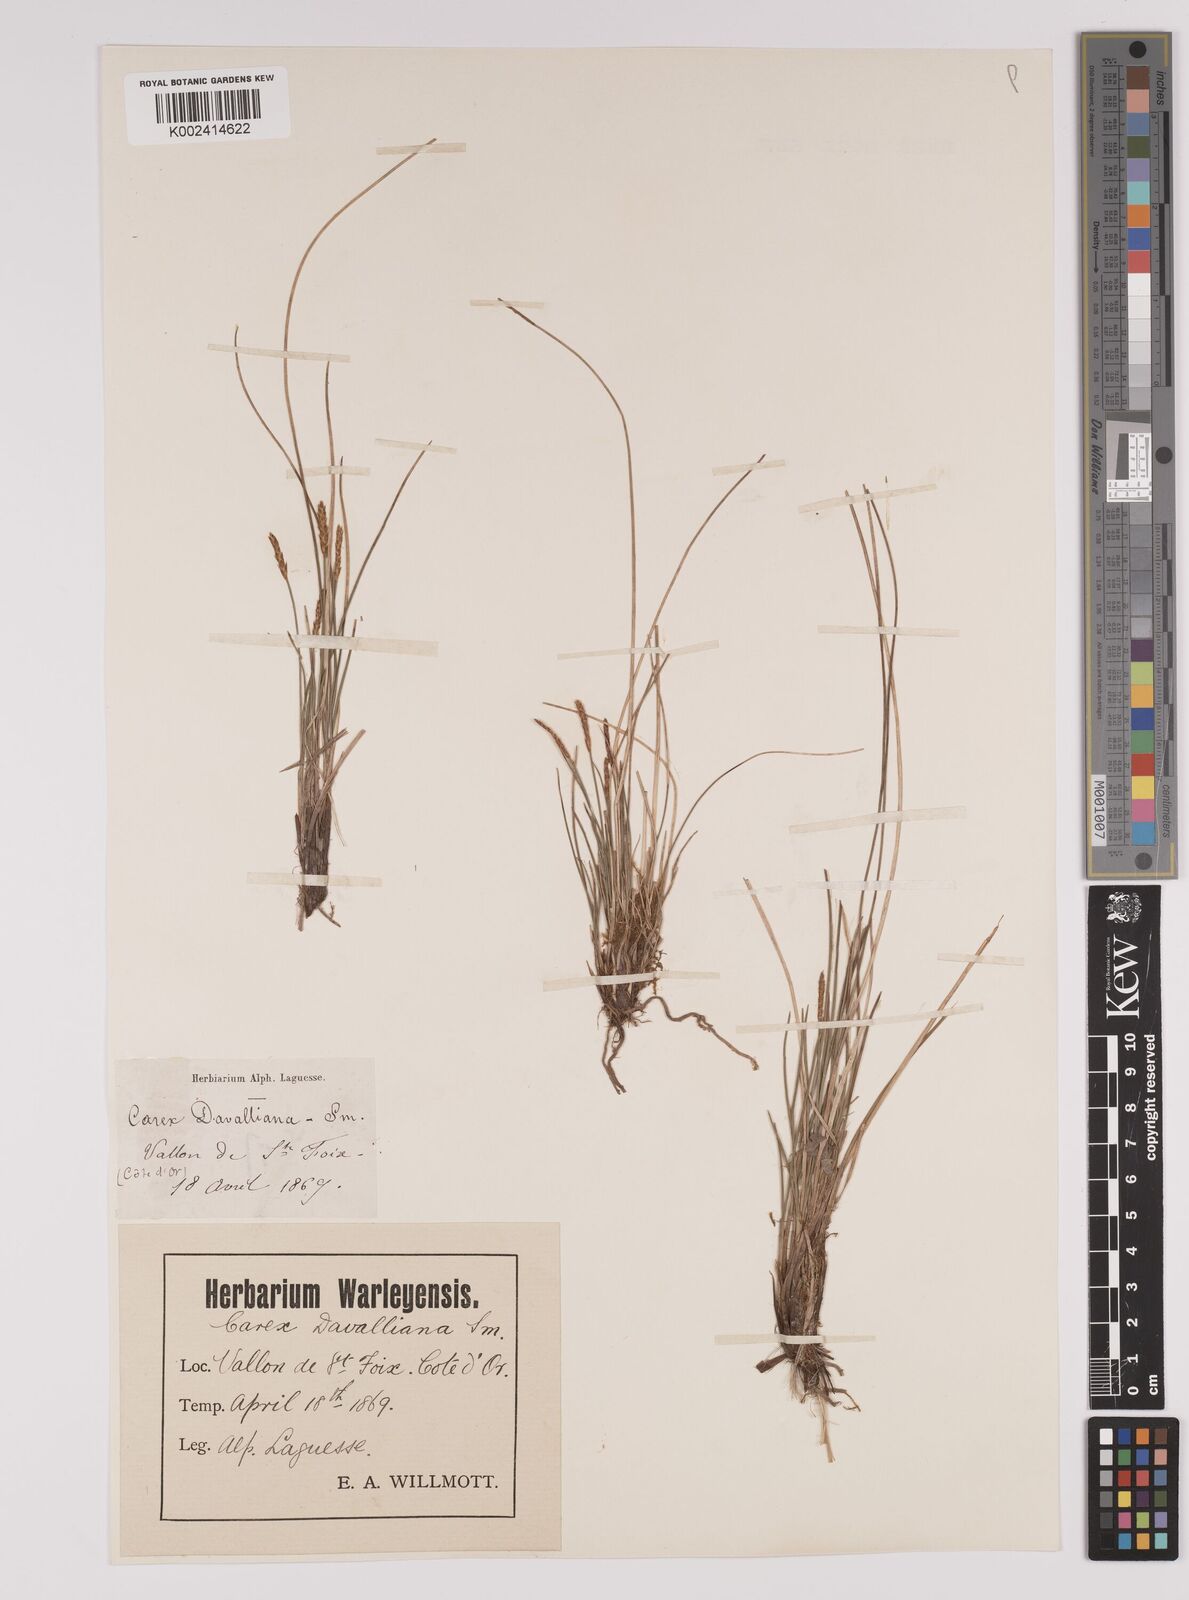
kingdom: Plantae
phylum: Tracheophyta
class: Liliopsida
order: Poales
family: Cyperaceae
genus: Carex
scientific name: Carex davalliana
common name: Davall's sedge
